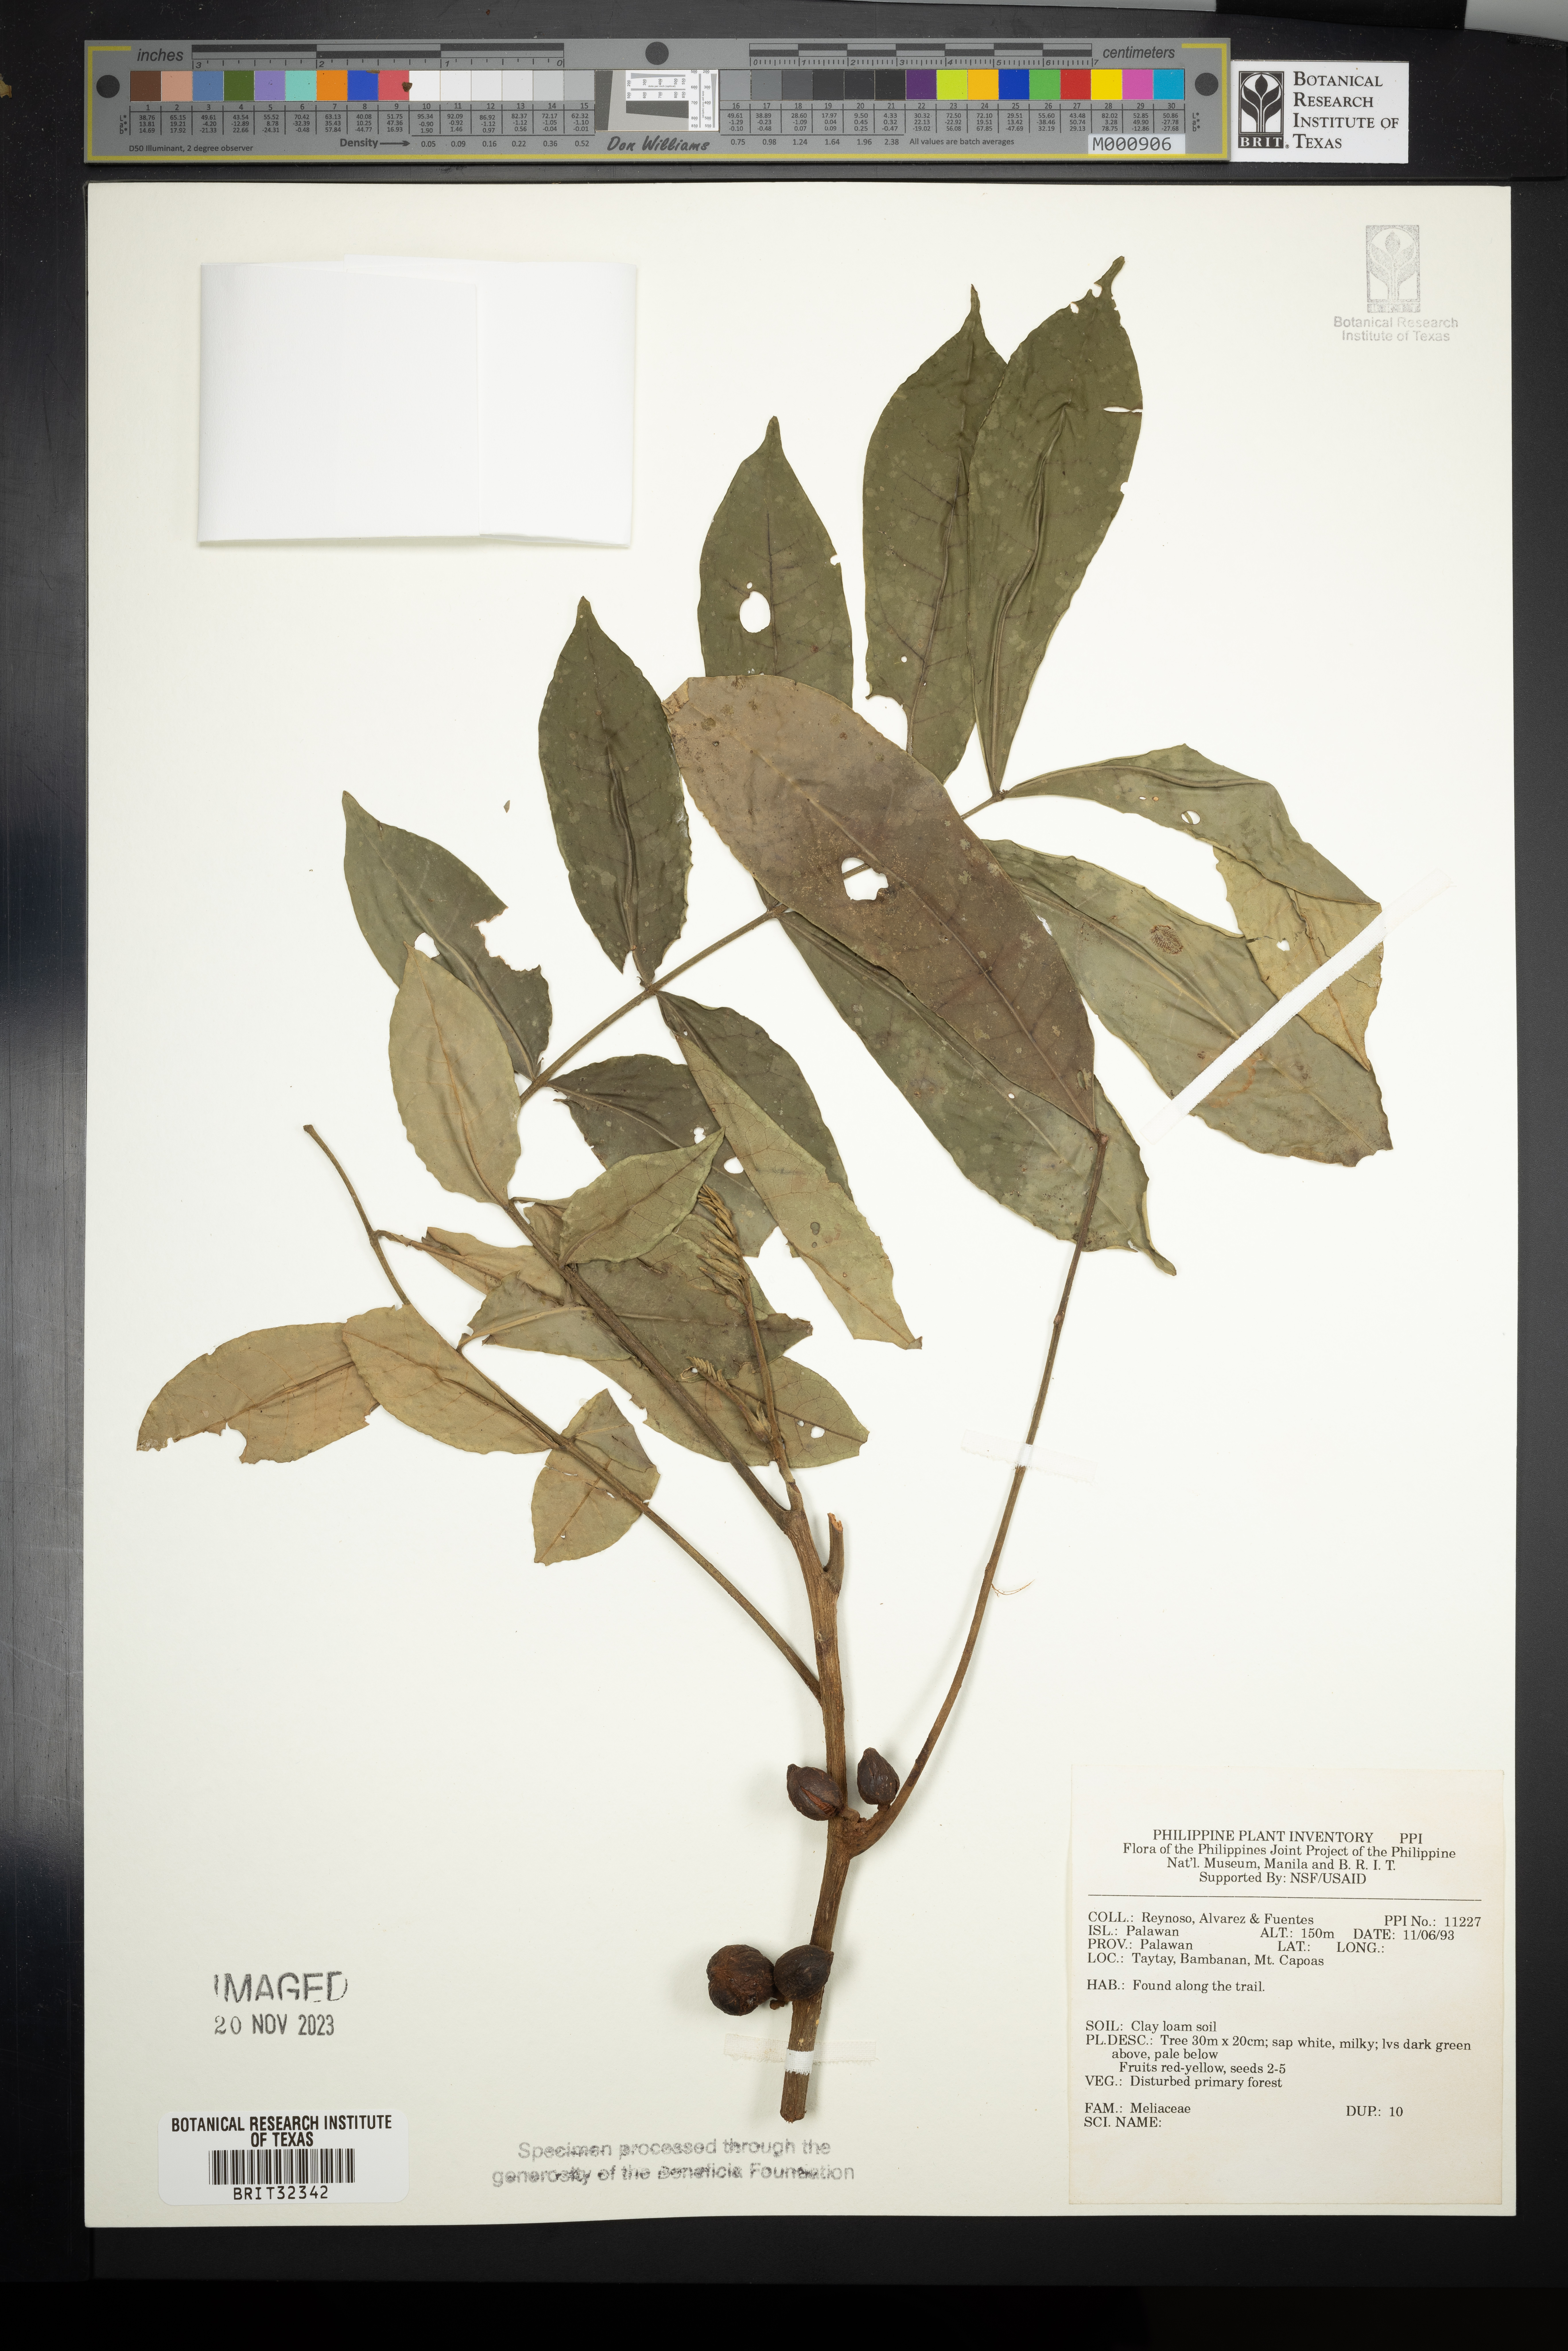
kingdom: Plantae
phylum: Tracheophyta
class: Magnoliopsida
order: Sapindales
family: Meliaceae
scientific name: Meliaceae
